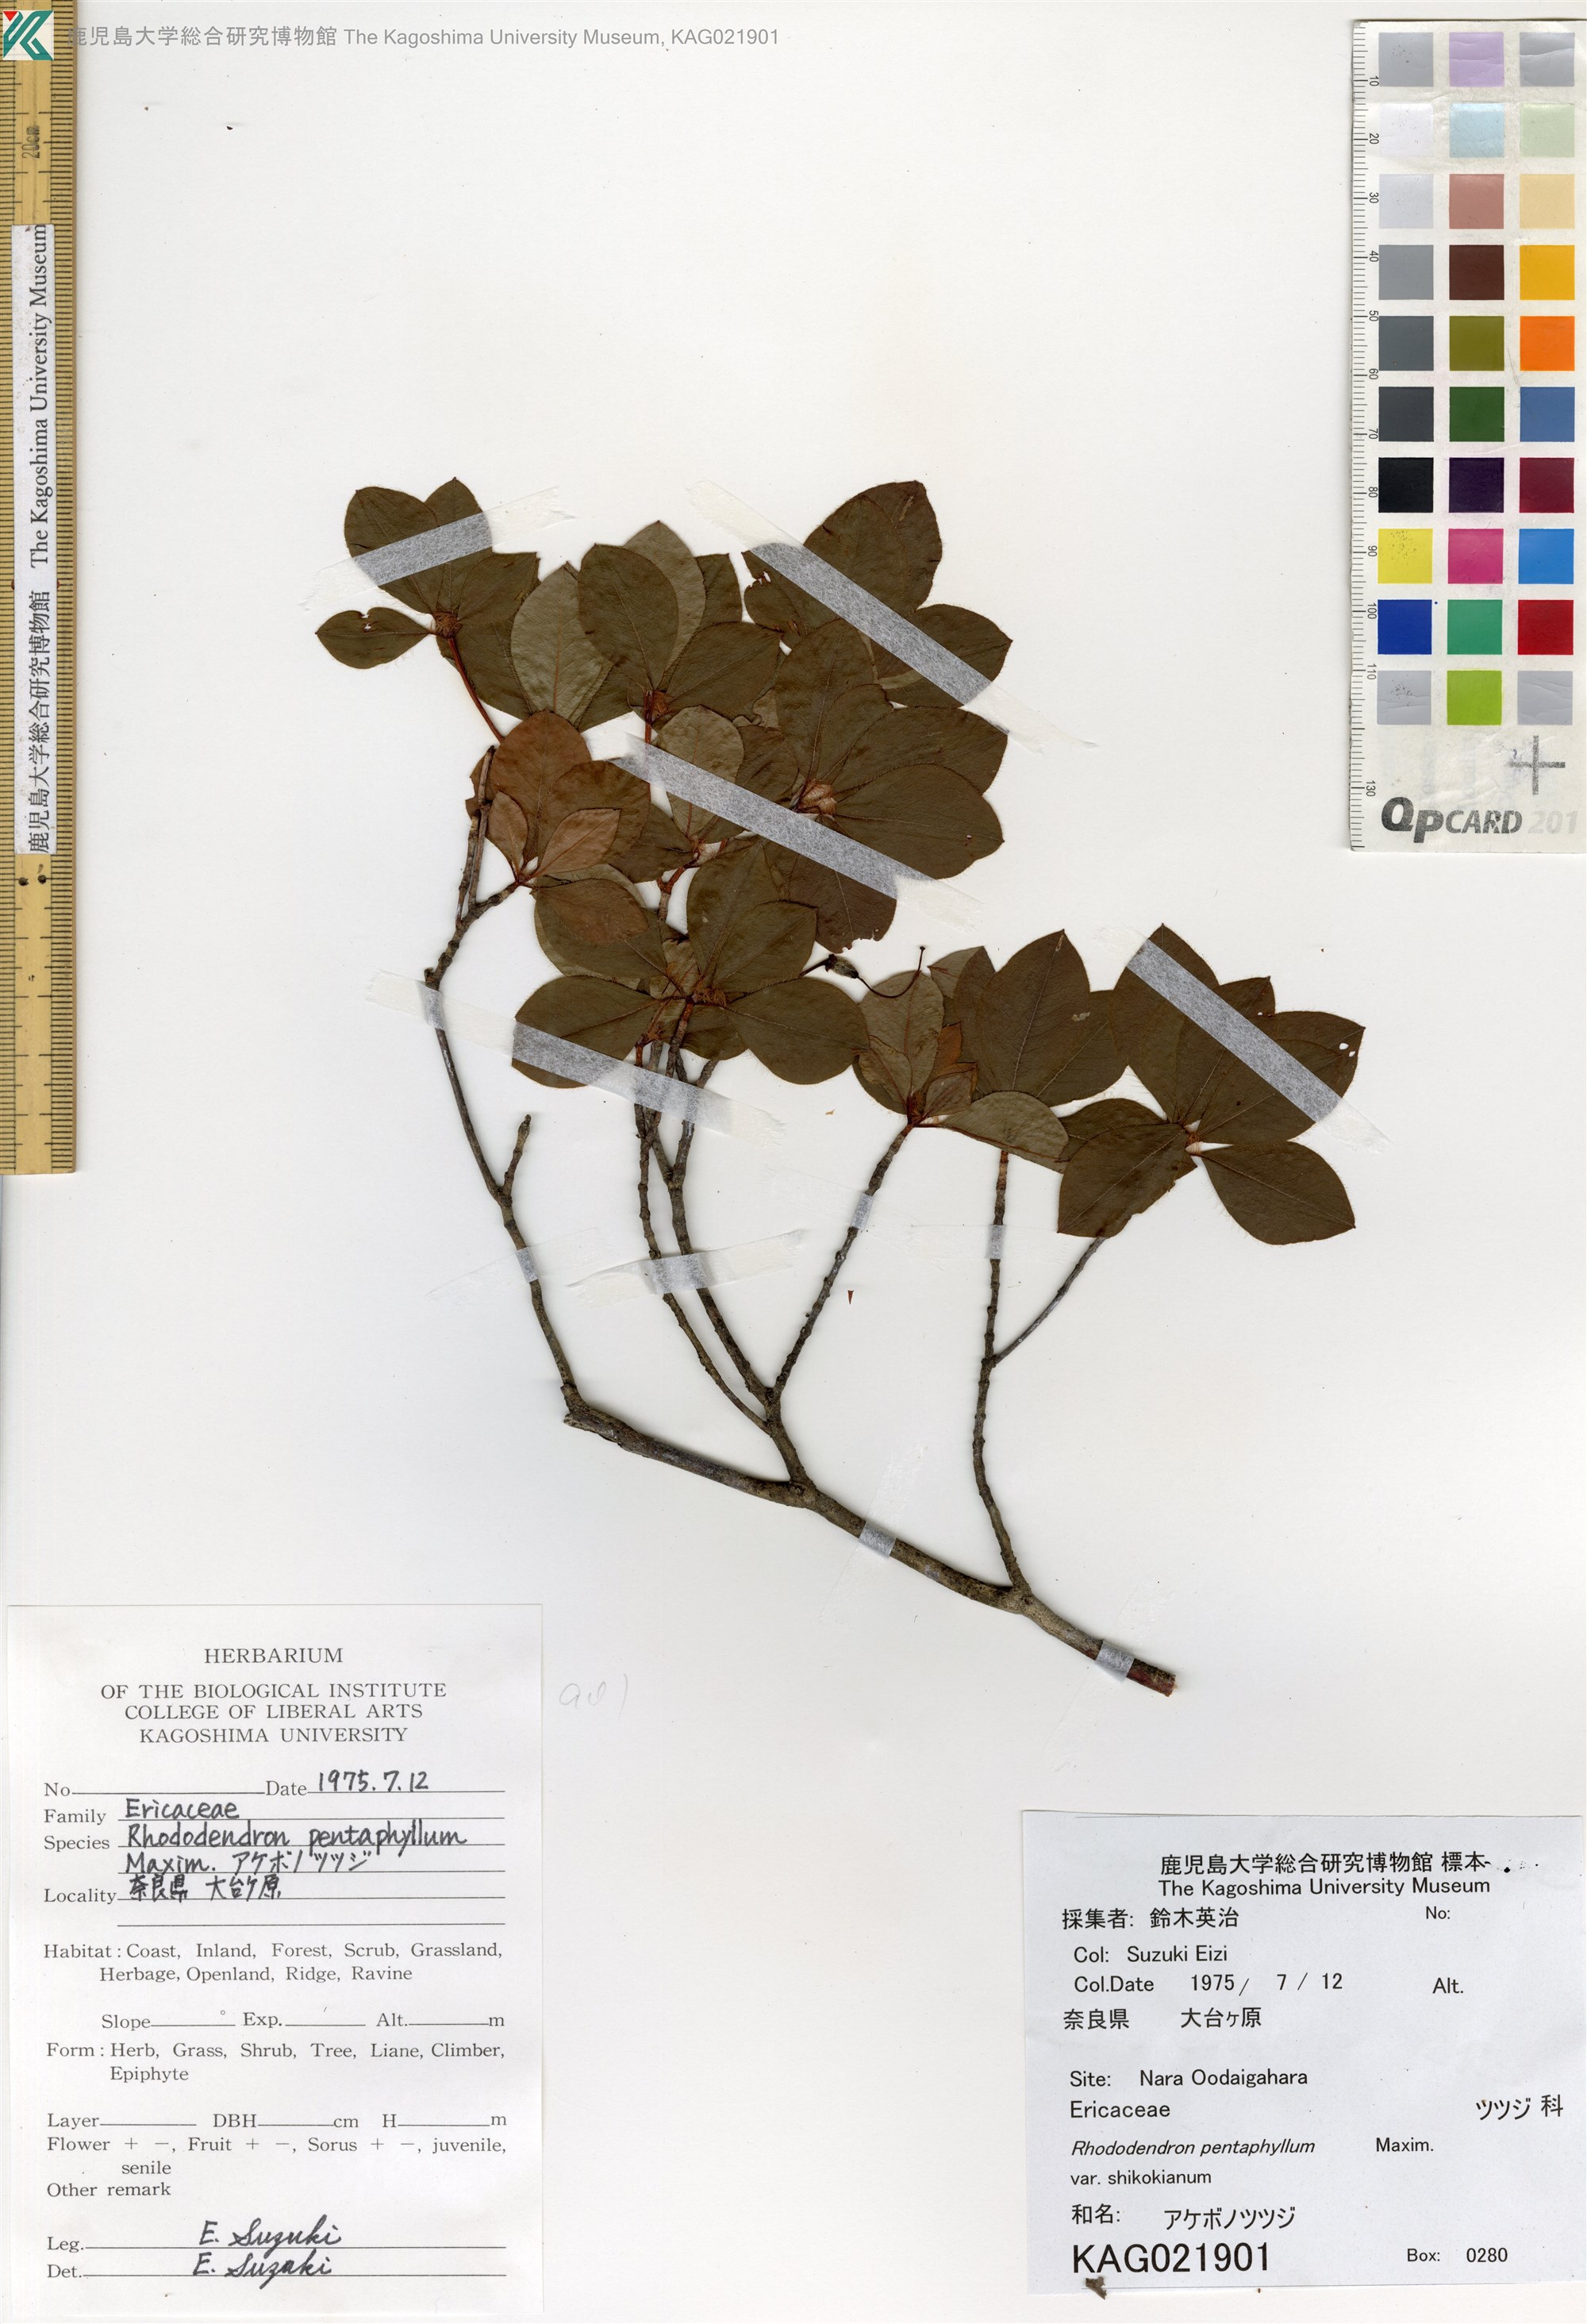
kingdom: Plantae
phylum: Tracheophyta
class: Magnoliopsida
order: Ericales
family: Ericaceae
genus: Rhododendron
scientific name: Rhododendron pentaphyllum
